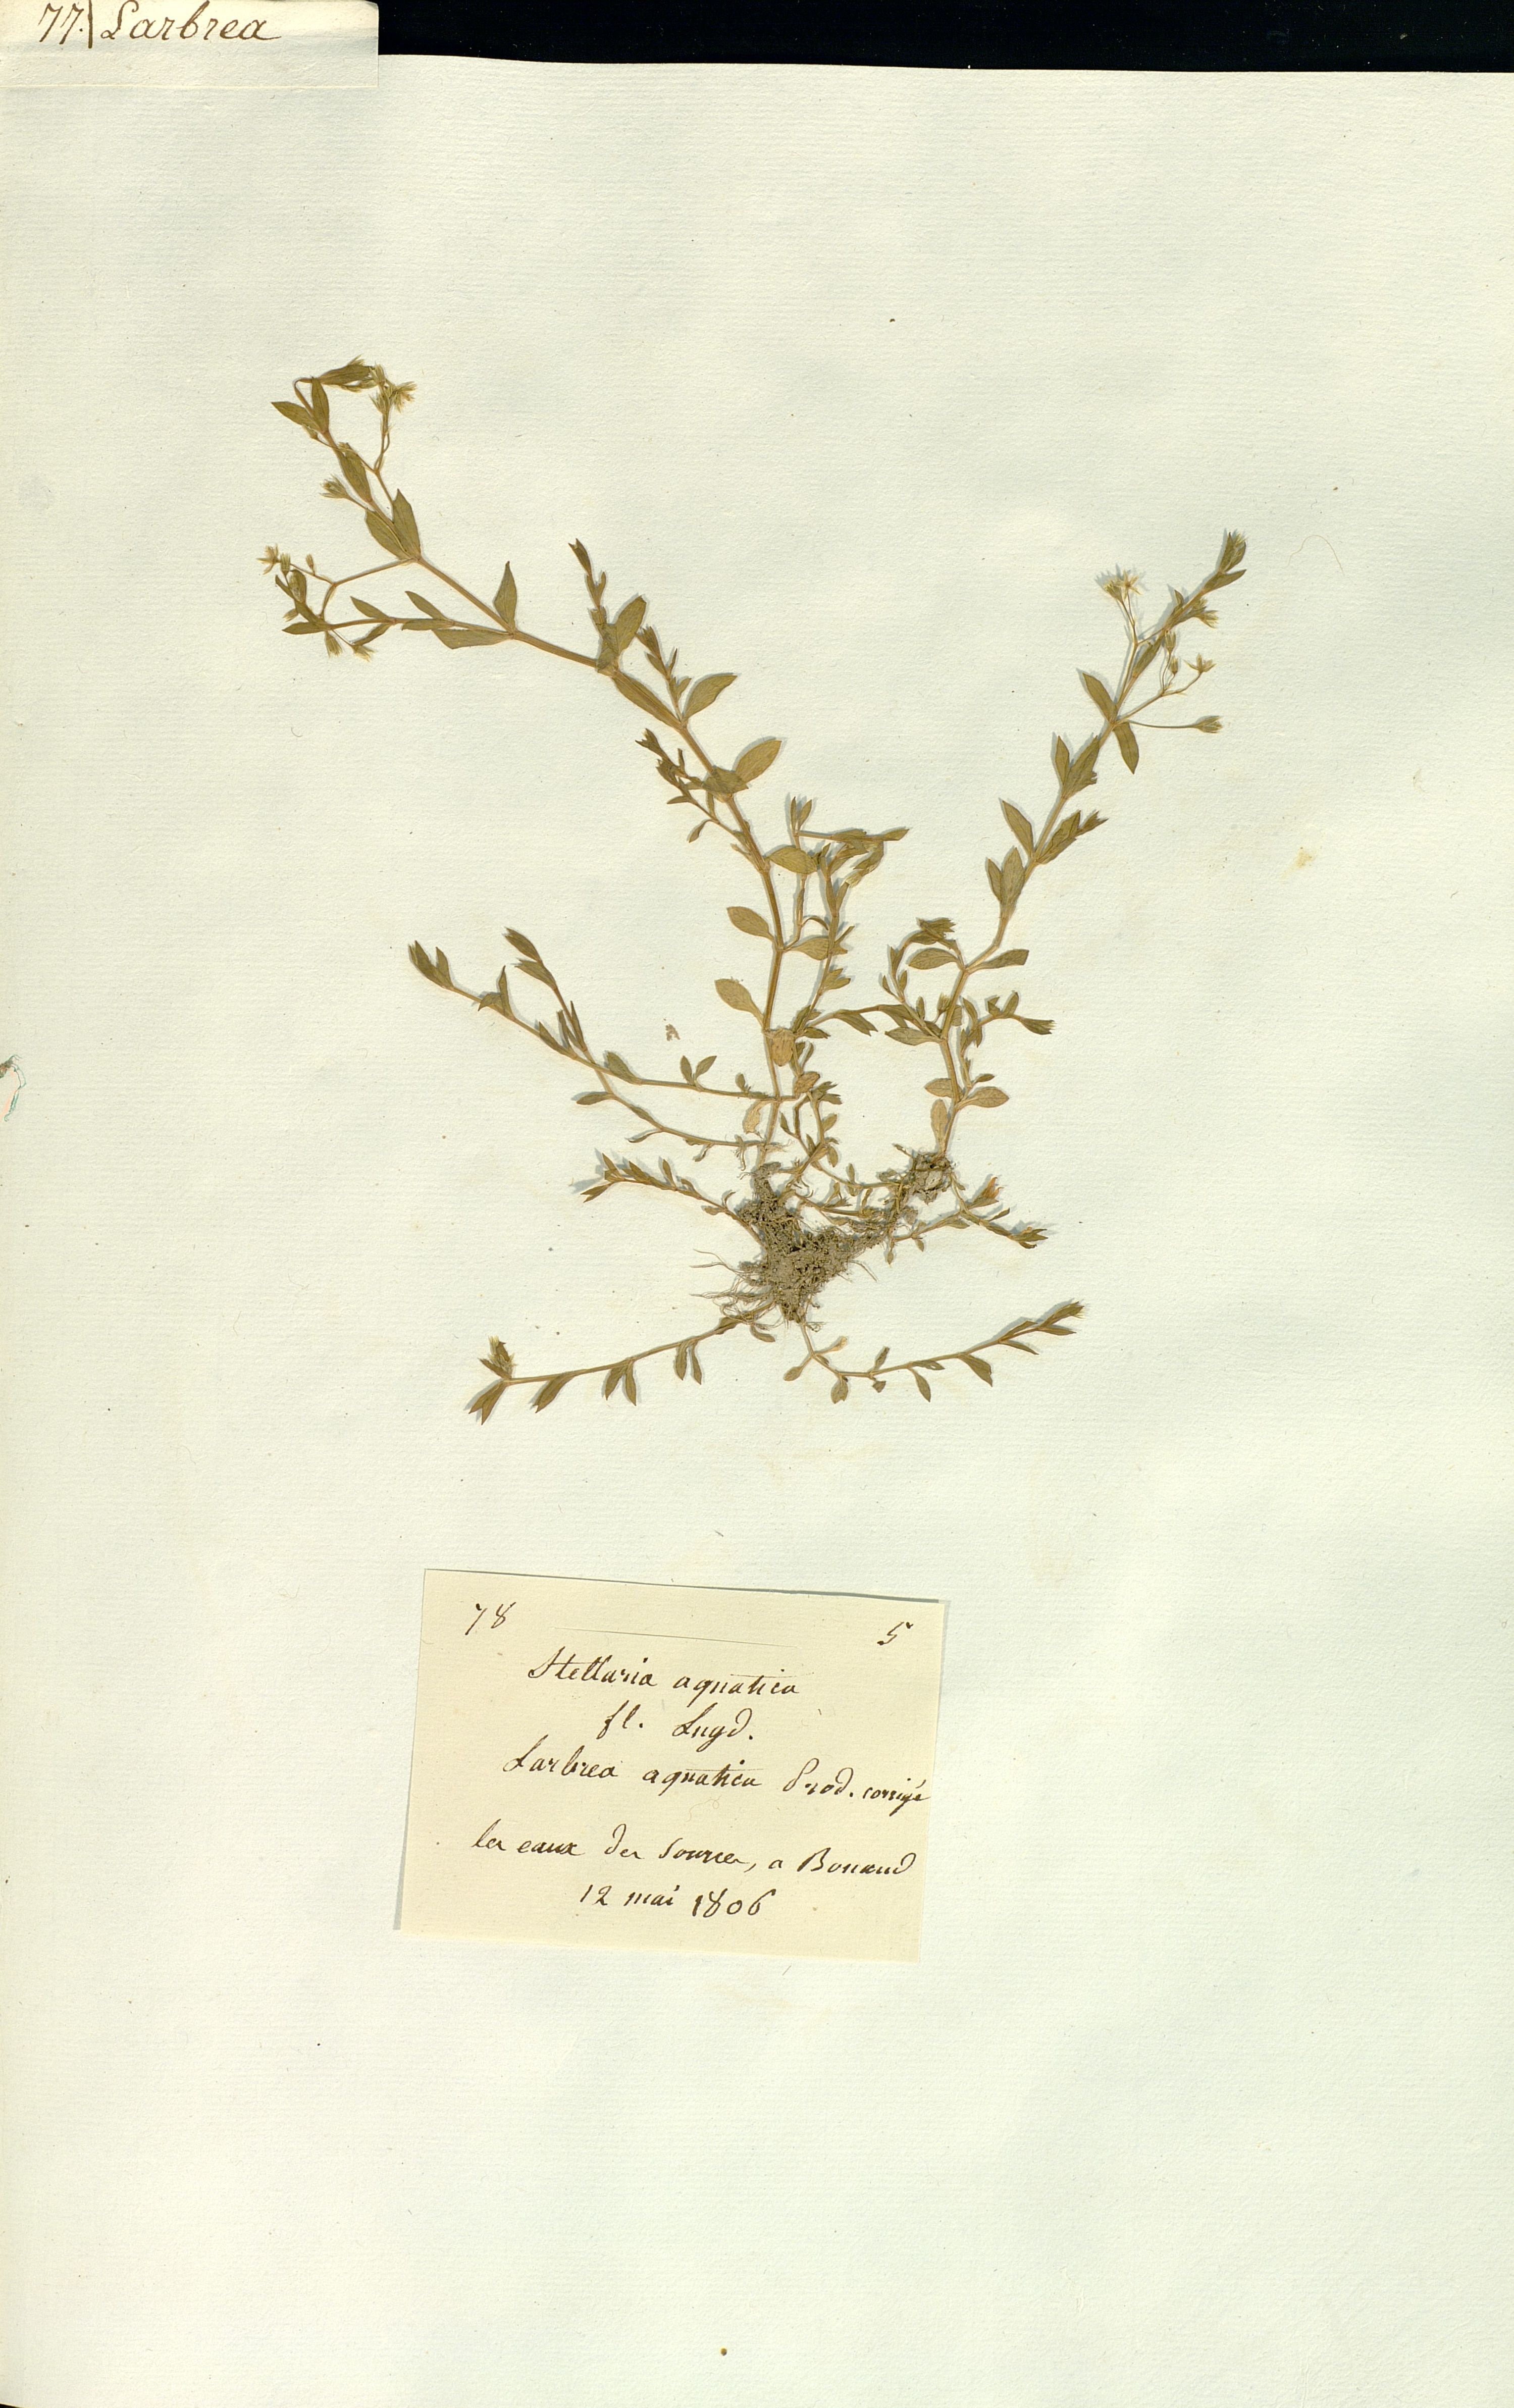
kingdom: Plantae
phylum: Tracheophyta
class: Magnoliopsida
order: Caryophyllales
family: Caryophyllaceae
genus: Stellaria
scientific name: Stellaria aquatica
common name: Water chickweed
